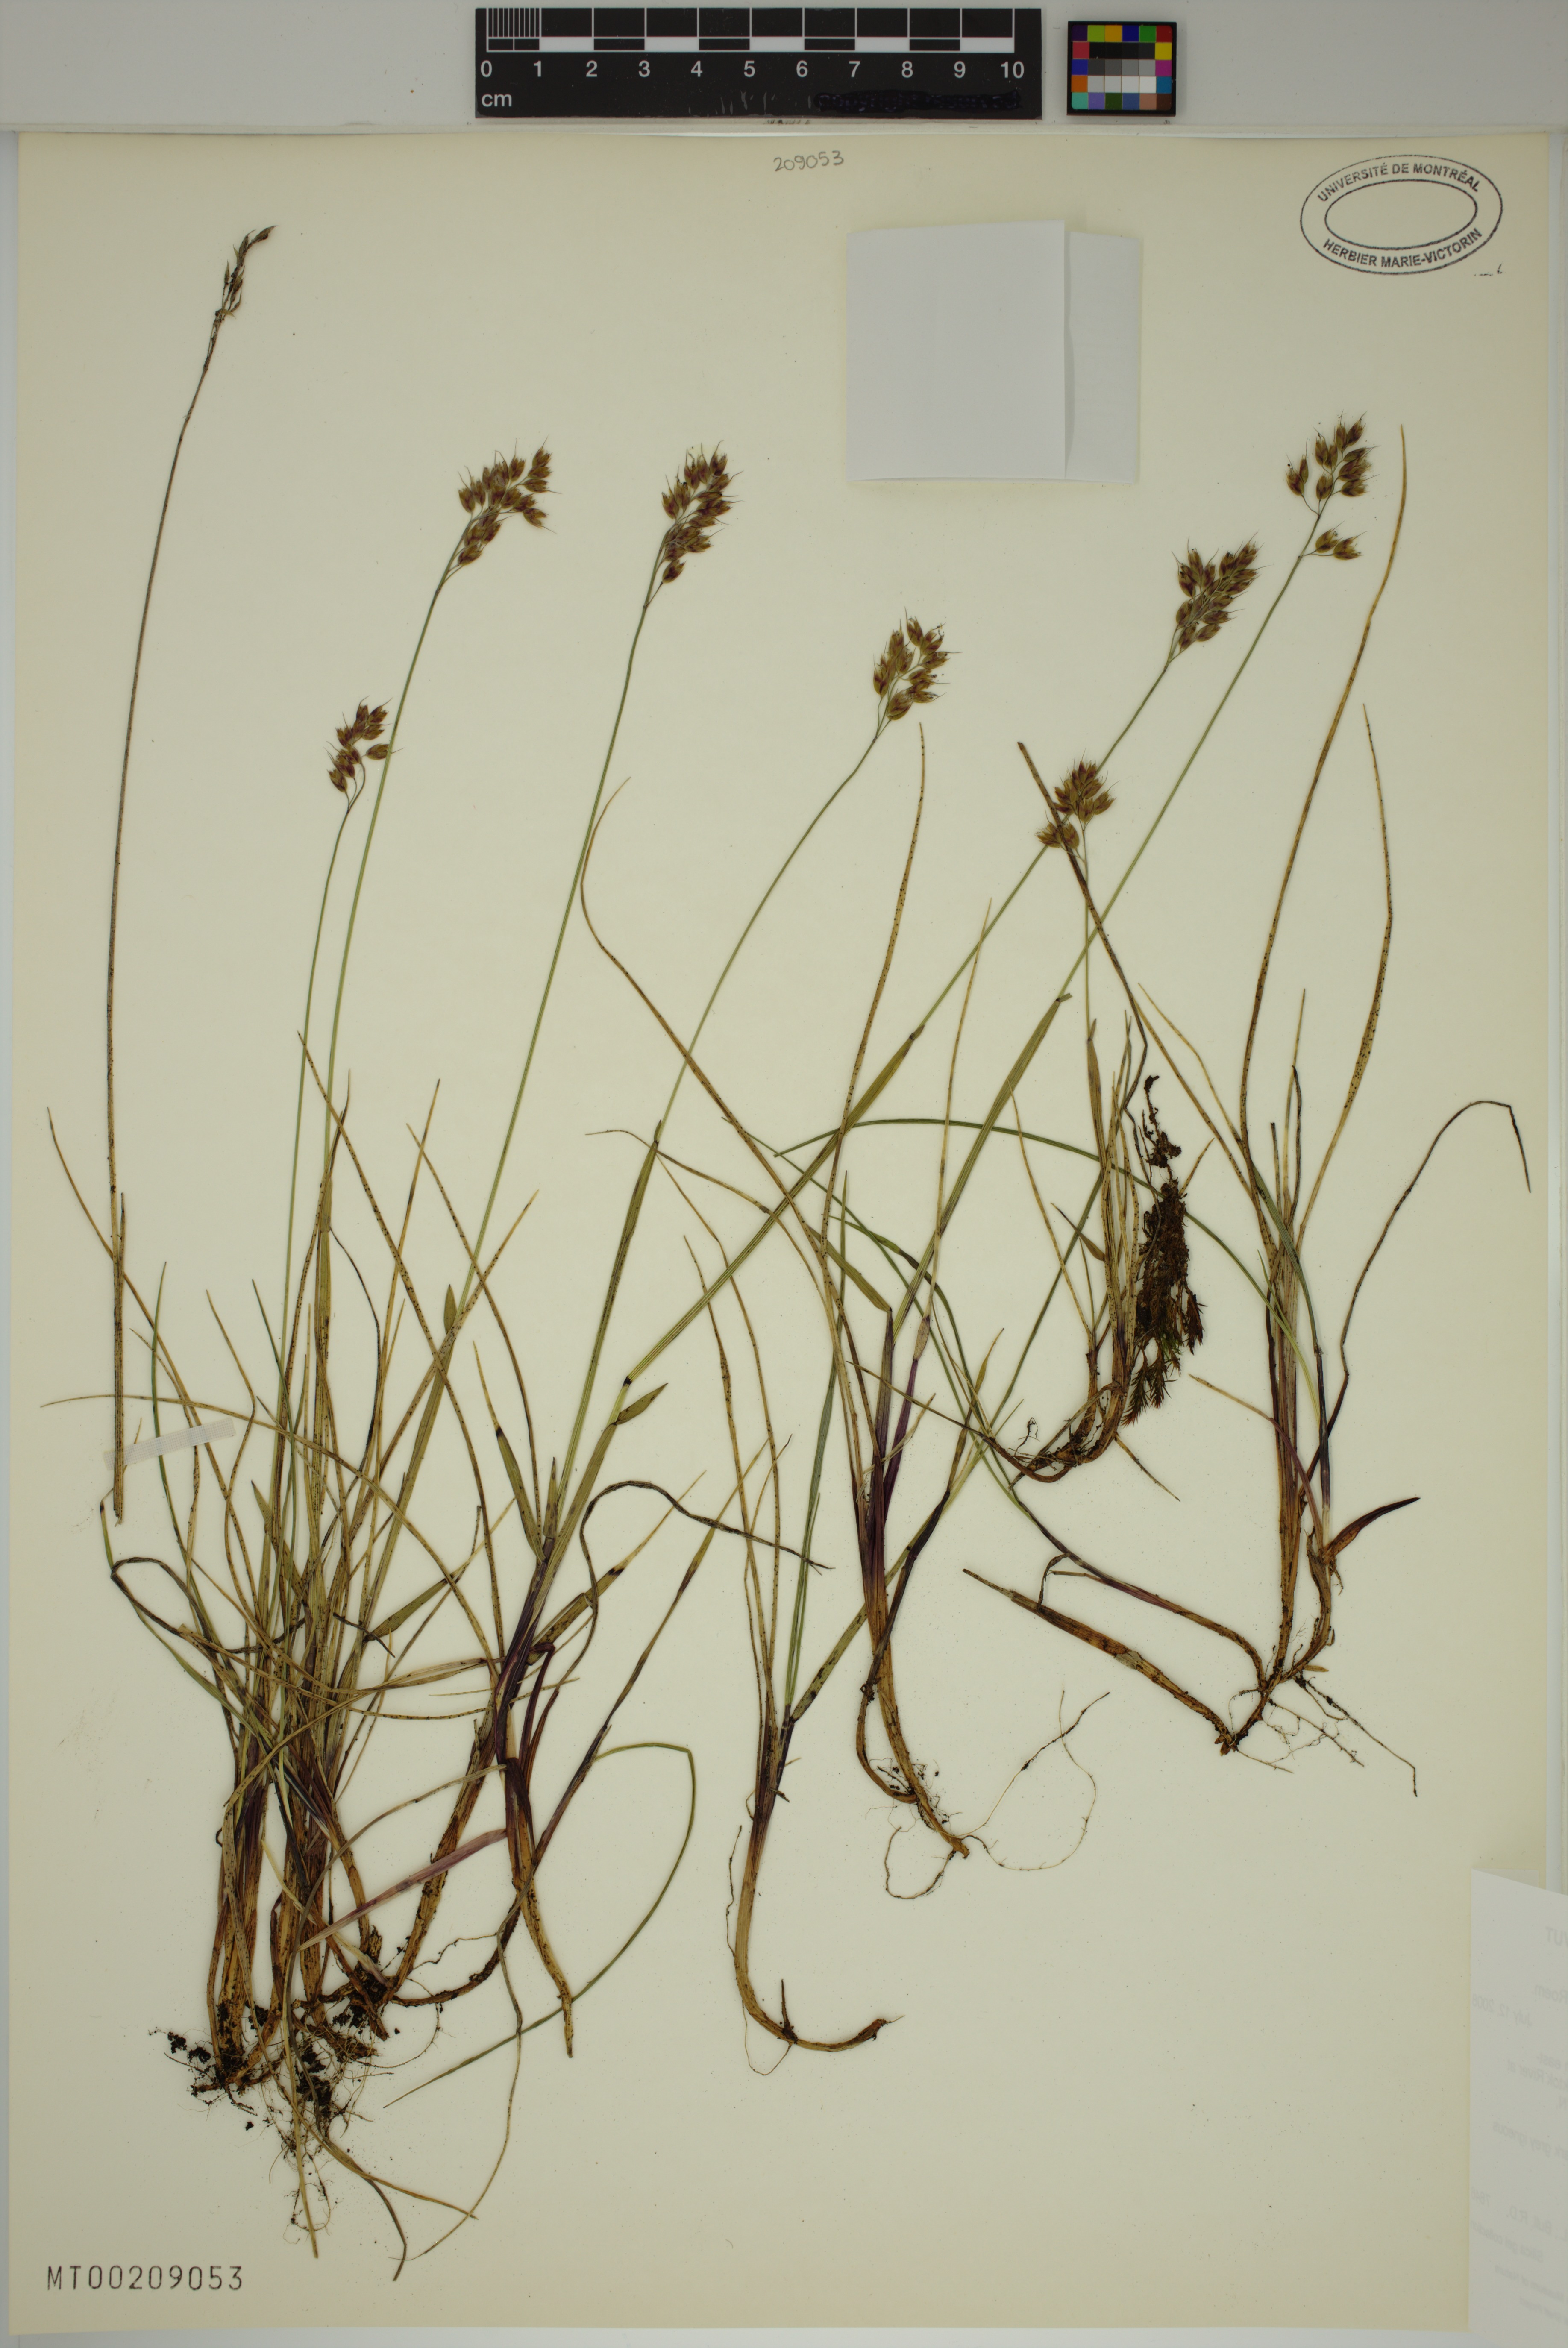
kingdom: Plantae
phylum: Tracheophyta
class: Liliopsida
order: Poales
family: Poaceae
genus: Anthoxanthum
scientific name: Anthoxanthum monticola
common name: Alpine sweetgrass
